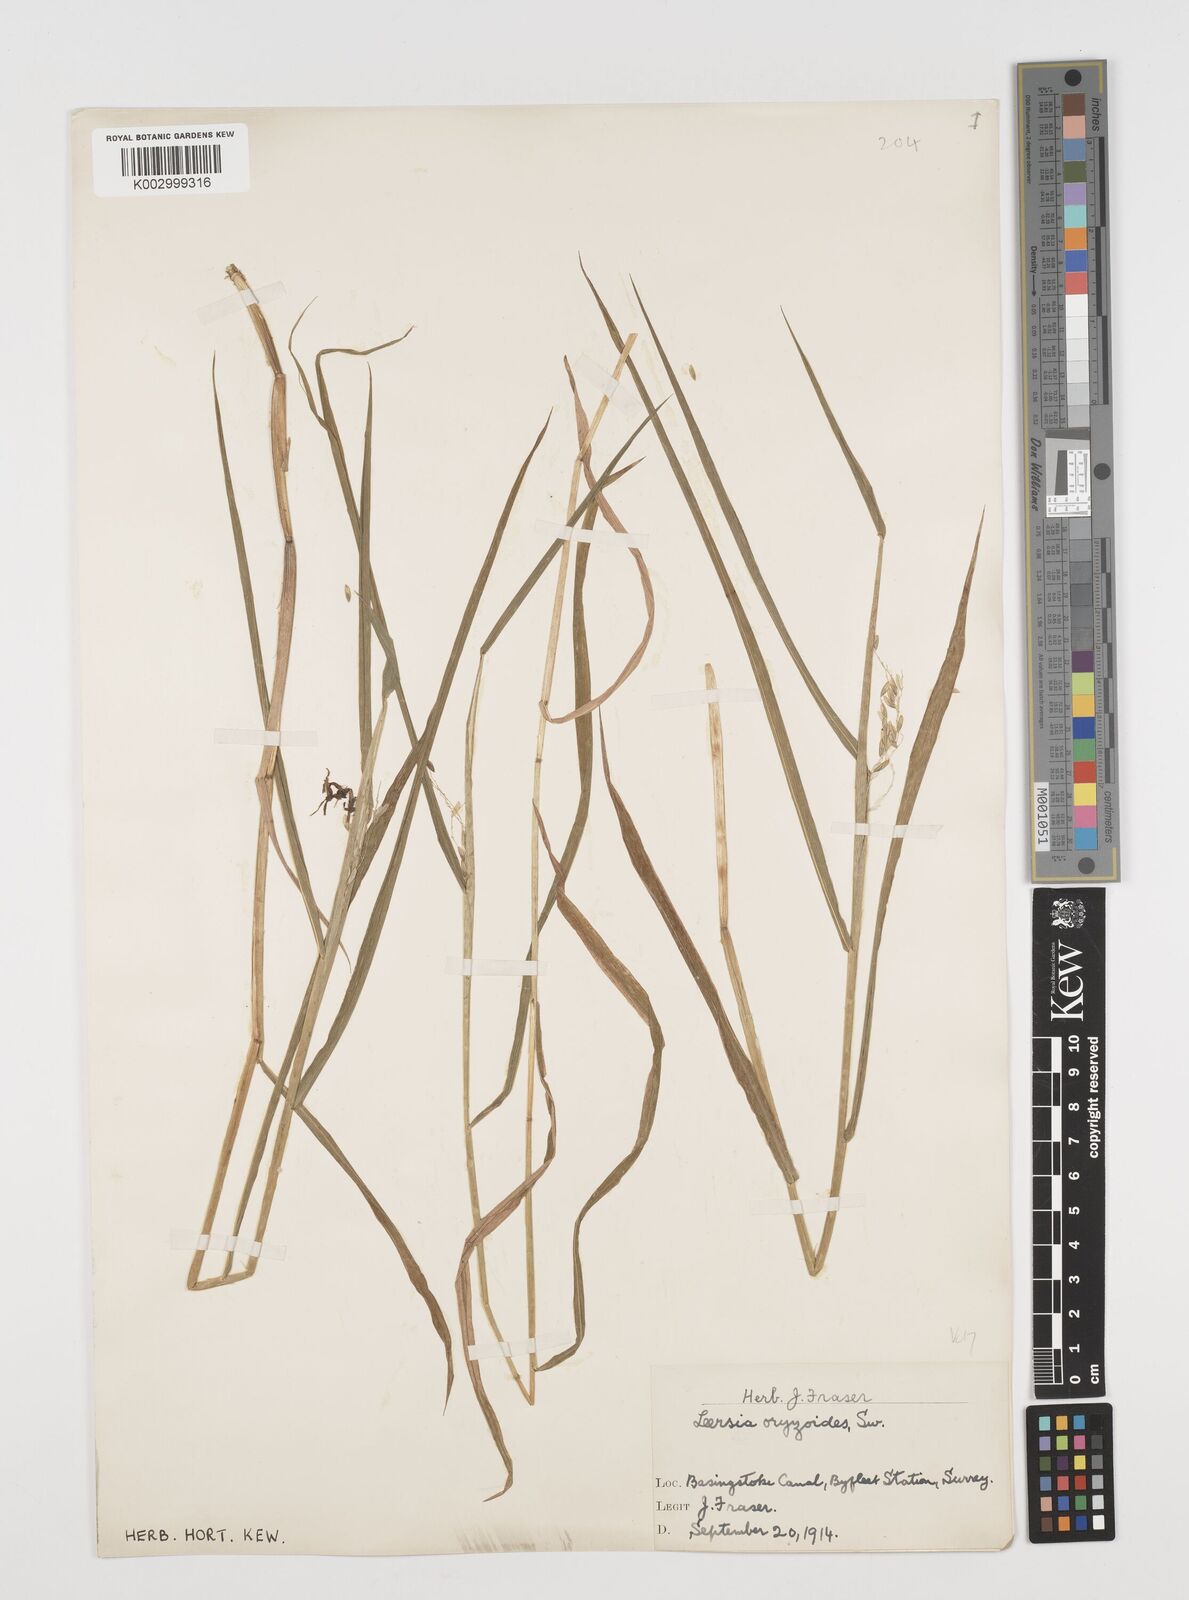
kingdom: Plantae
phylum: Tracheophyta
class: Liliopsida
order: Poales
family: Poaceae
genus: Leersia
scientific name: Leersia oryzoides
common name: Cut-grass
